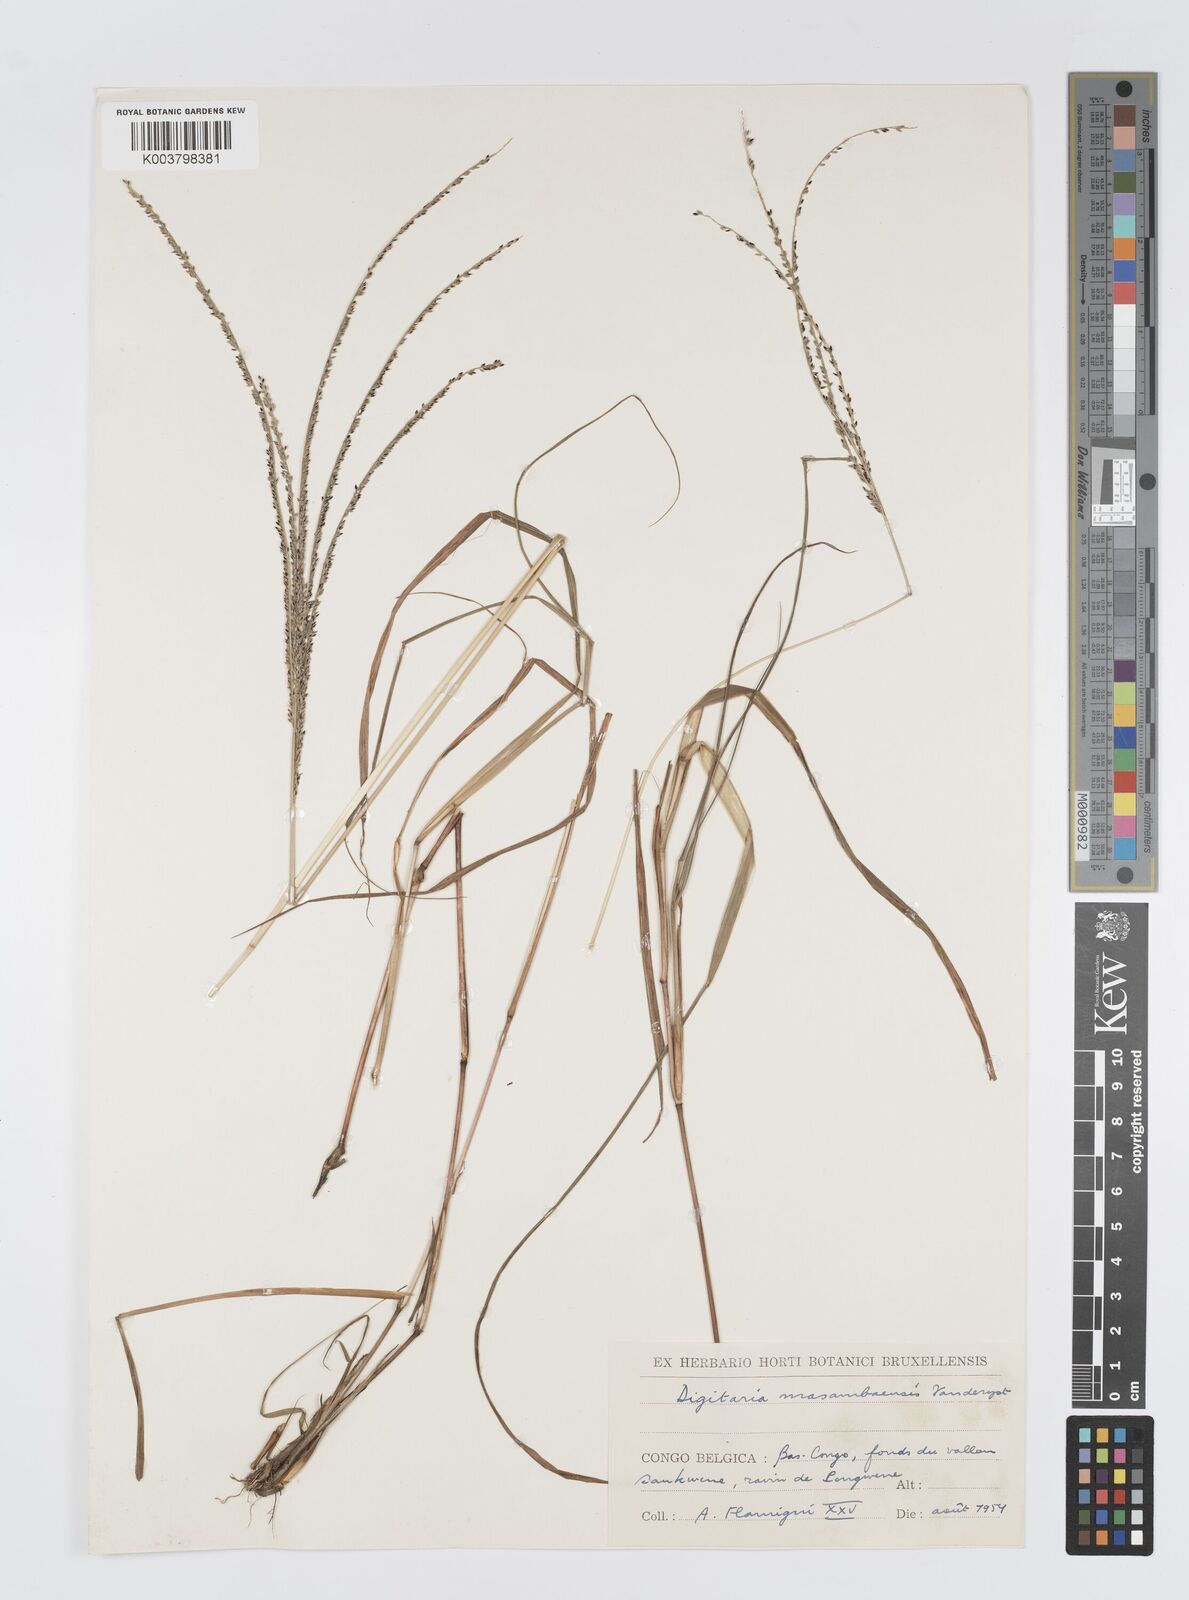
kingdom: Plantae
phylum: Tracheophyta
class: Liliopsida
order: Poales
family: Poaceae
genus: Digitaria
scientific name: Digitaria atrofusca
